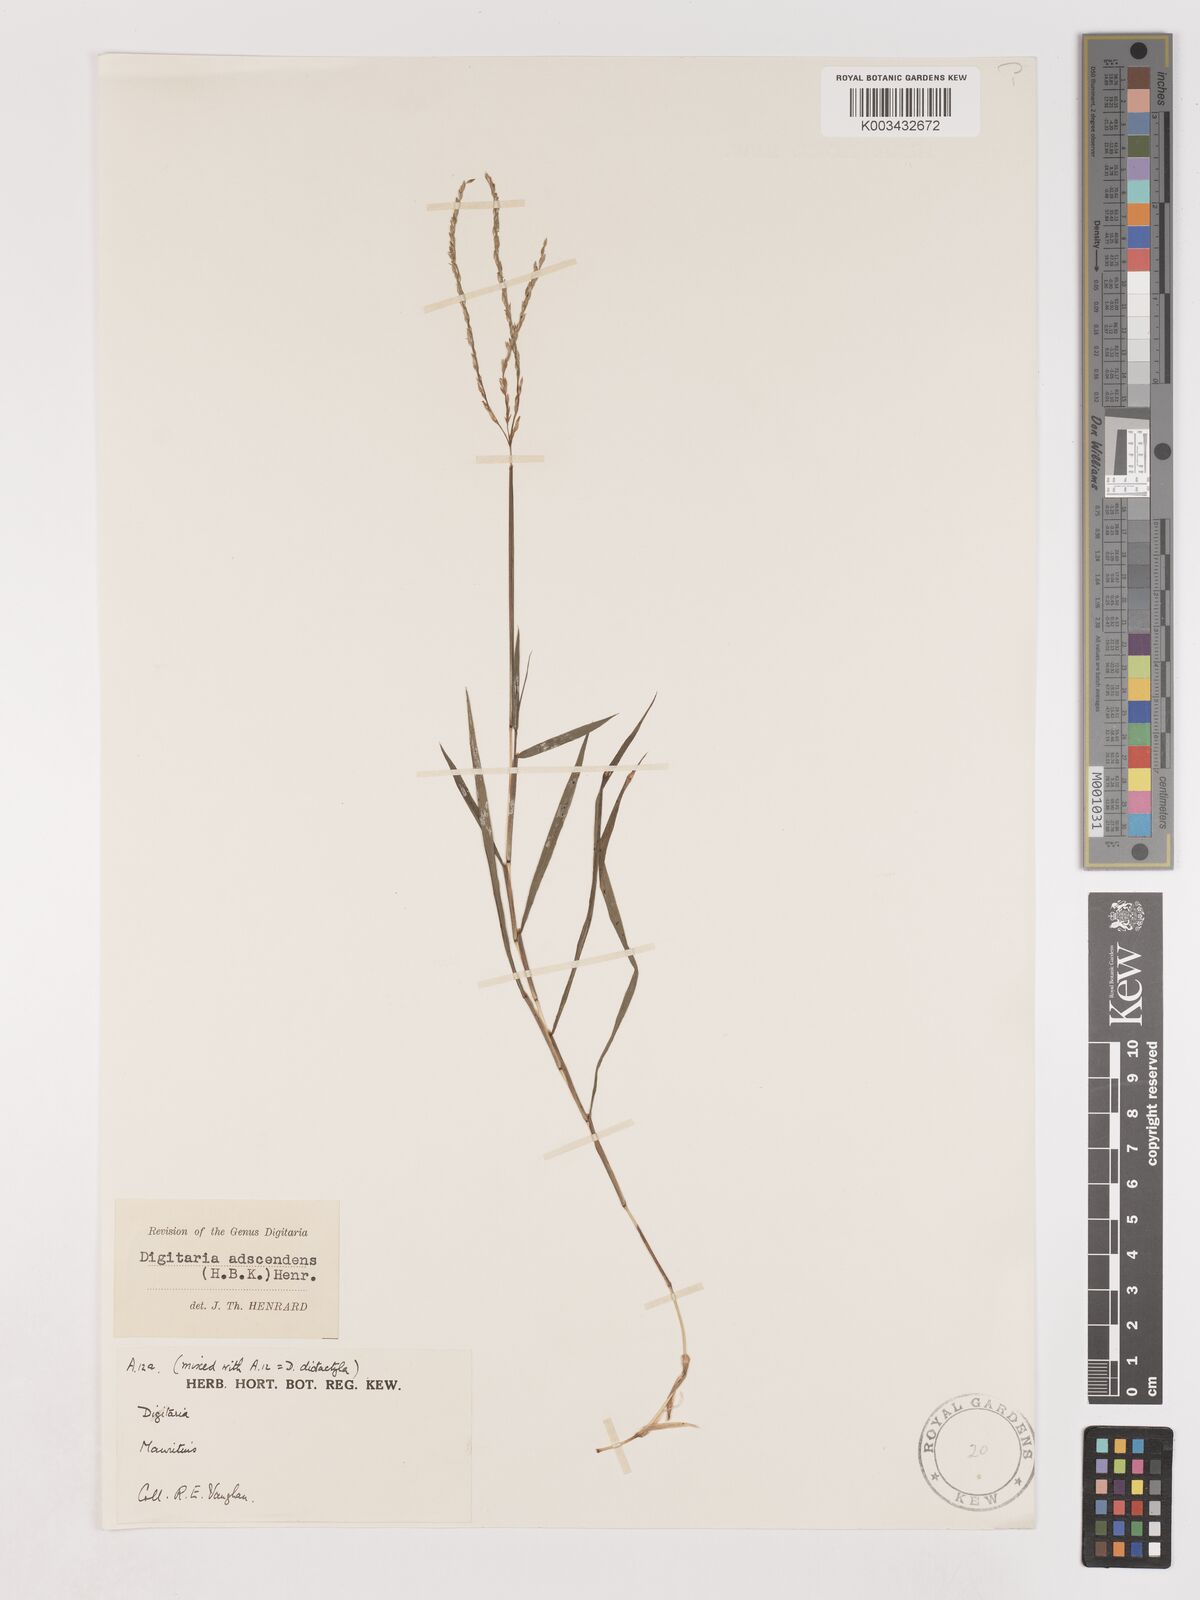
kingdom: Plantae
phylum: Tracheophyta
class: Liliopsida
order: Poales
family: Poaceae
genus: Digitaria
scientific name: Digitaria radicosa
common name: Trailing crabgrass
